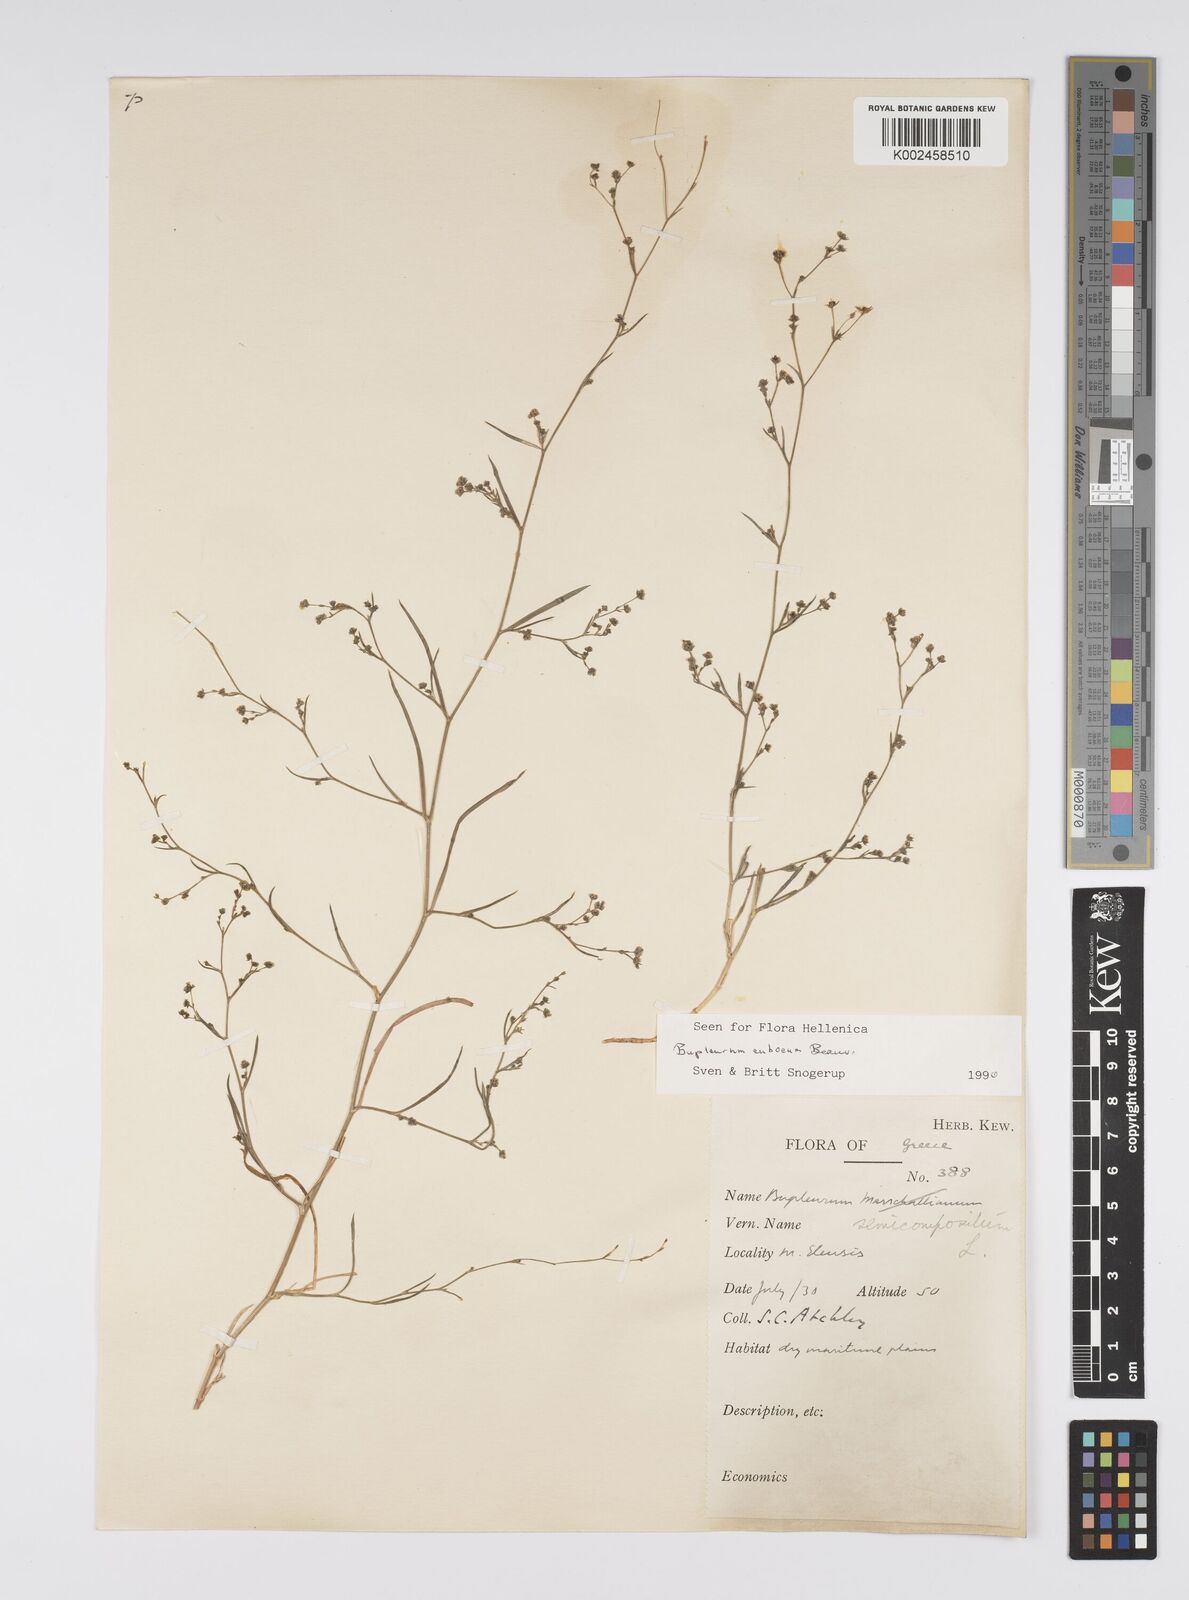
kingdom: Plantae
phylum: Tracheophyta
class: Magnoliopsida
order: Apiales
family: Apiaceae
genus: Bupleurum
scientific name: Bupleurum tenuissimum
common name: Slender hare's-ear
